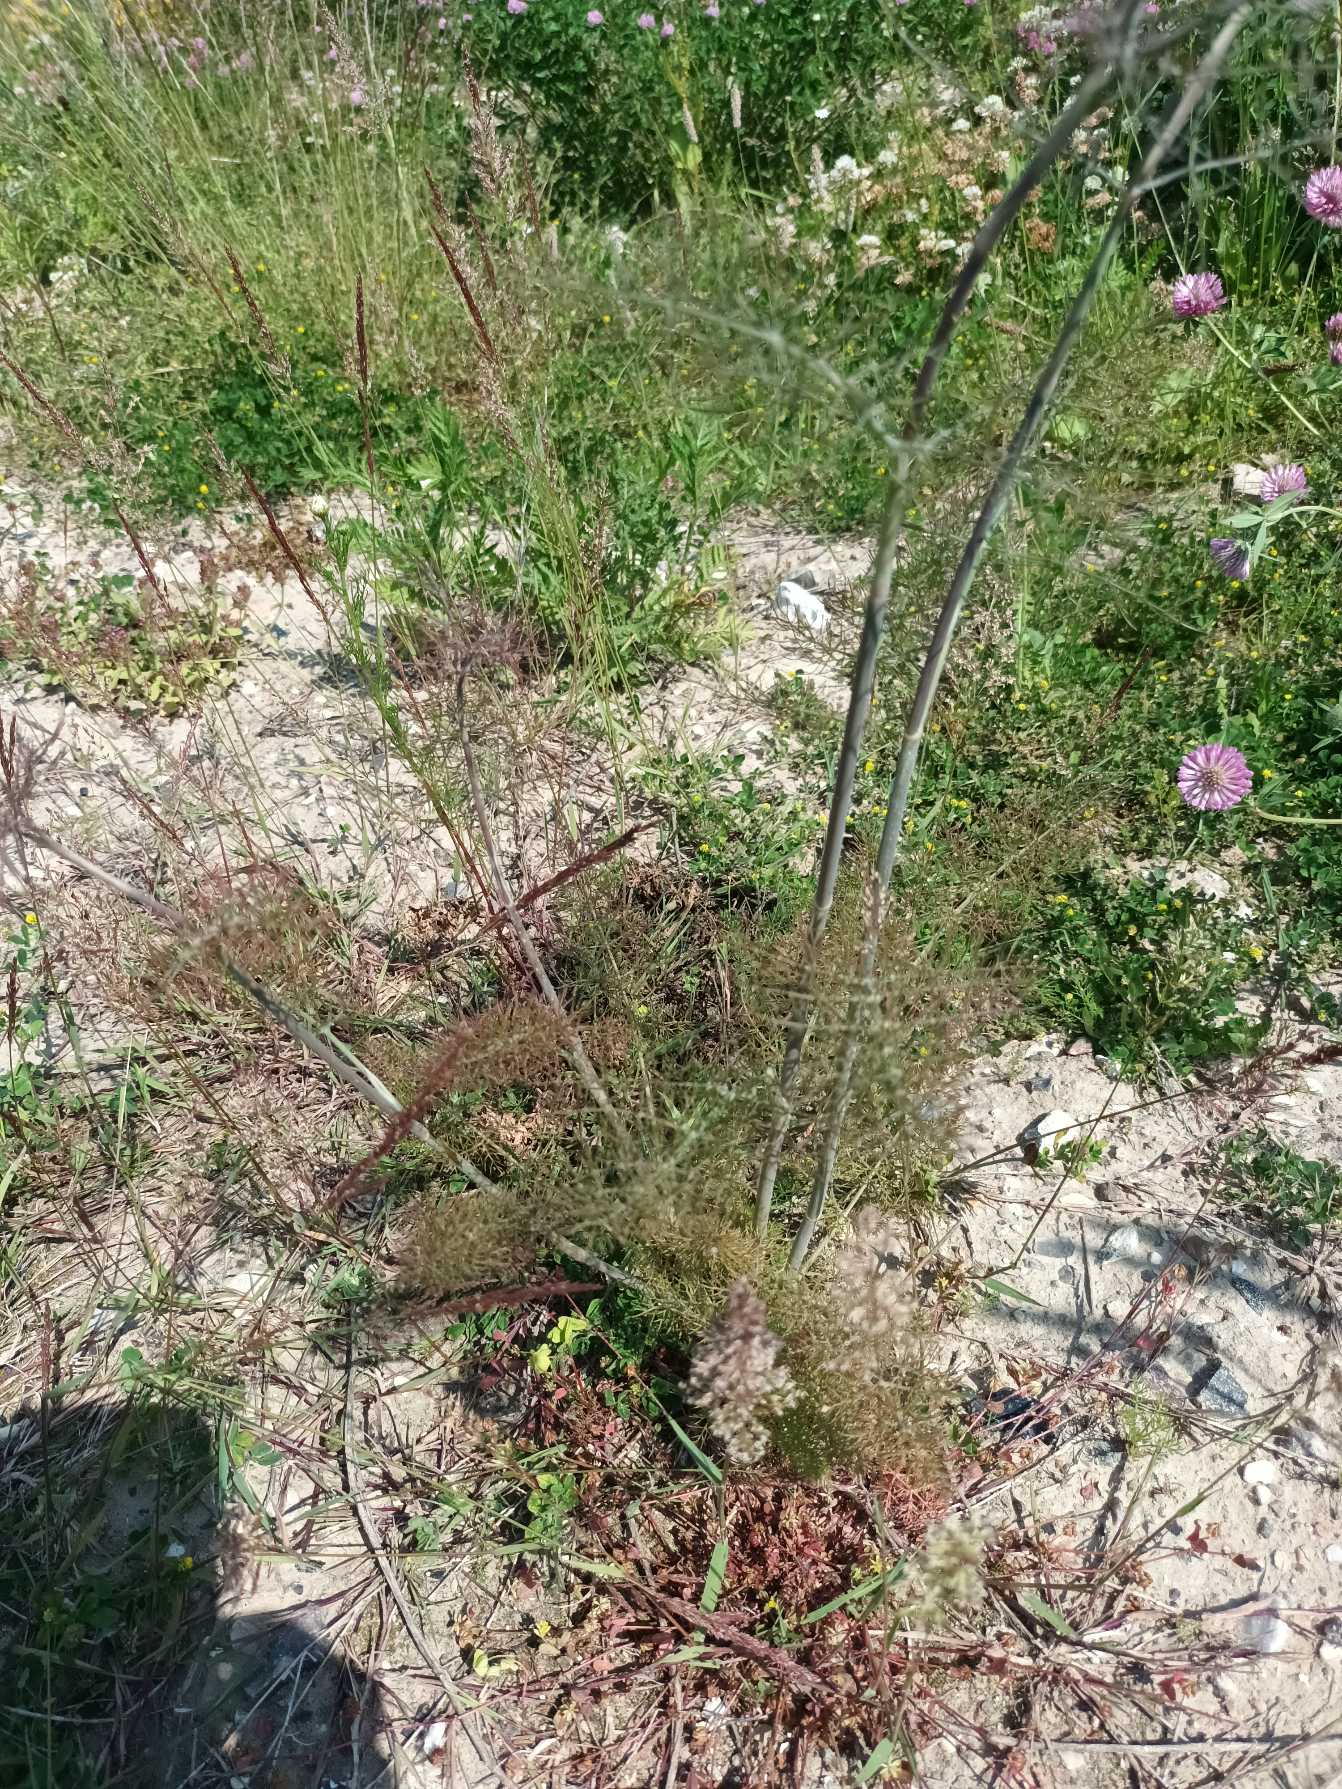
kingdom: Plantae
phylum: Tracheophyta
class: Magnoliopsida
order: Apiales
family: Apiaceae
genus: Foeniculum
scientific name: Foeniculum vulgare
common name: Fennikel
